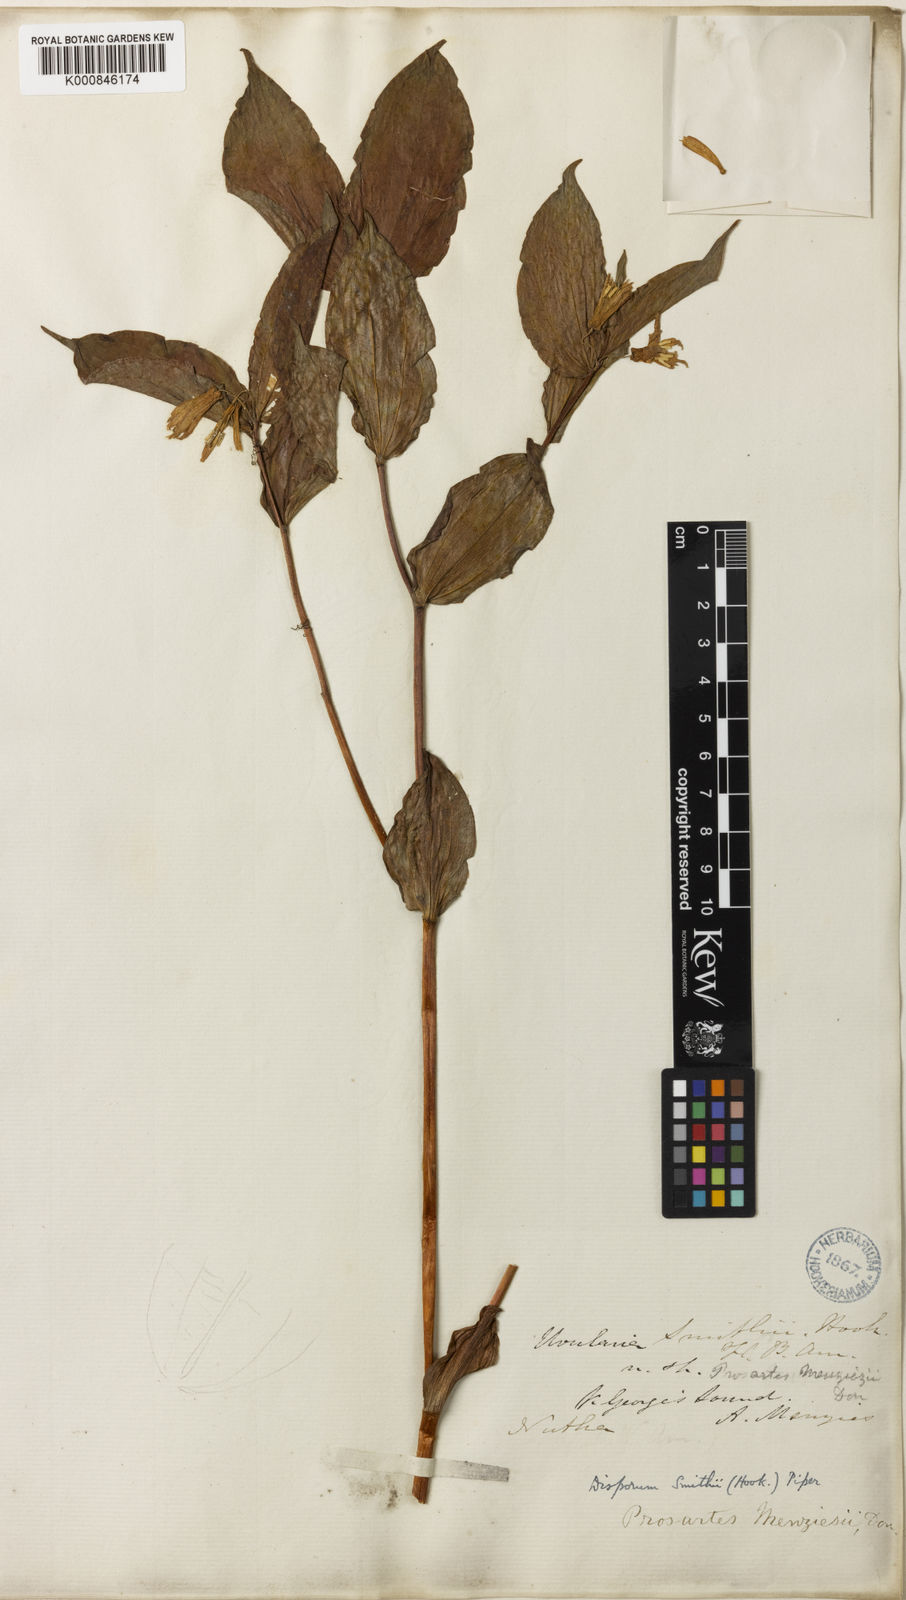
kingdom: Plantae
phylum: Tracheophyta
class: Liliopsida
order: Liliales
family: Liliaceae
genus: Prosartes
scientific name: Prosartes smithii
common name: Fairy-lantern
